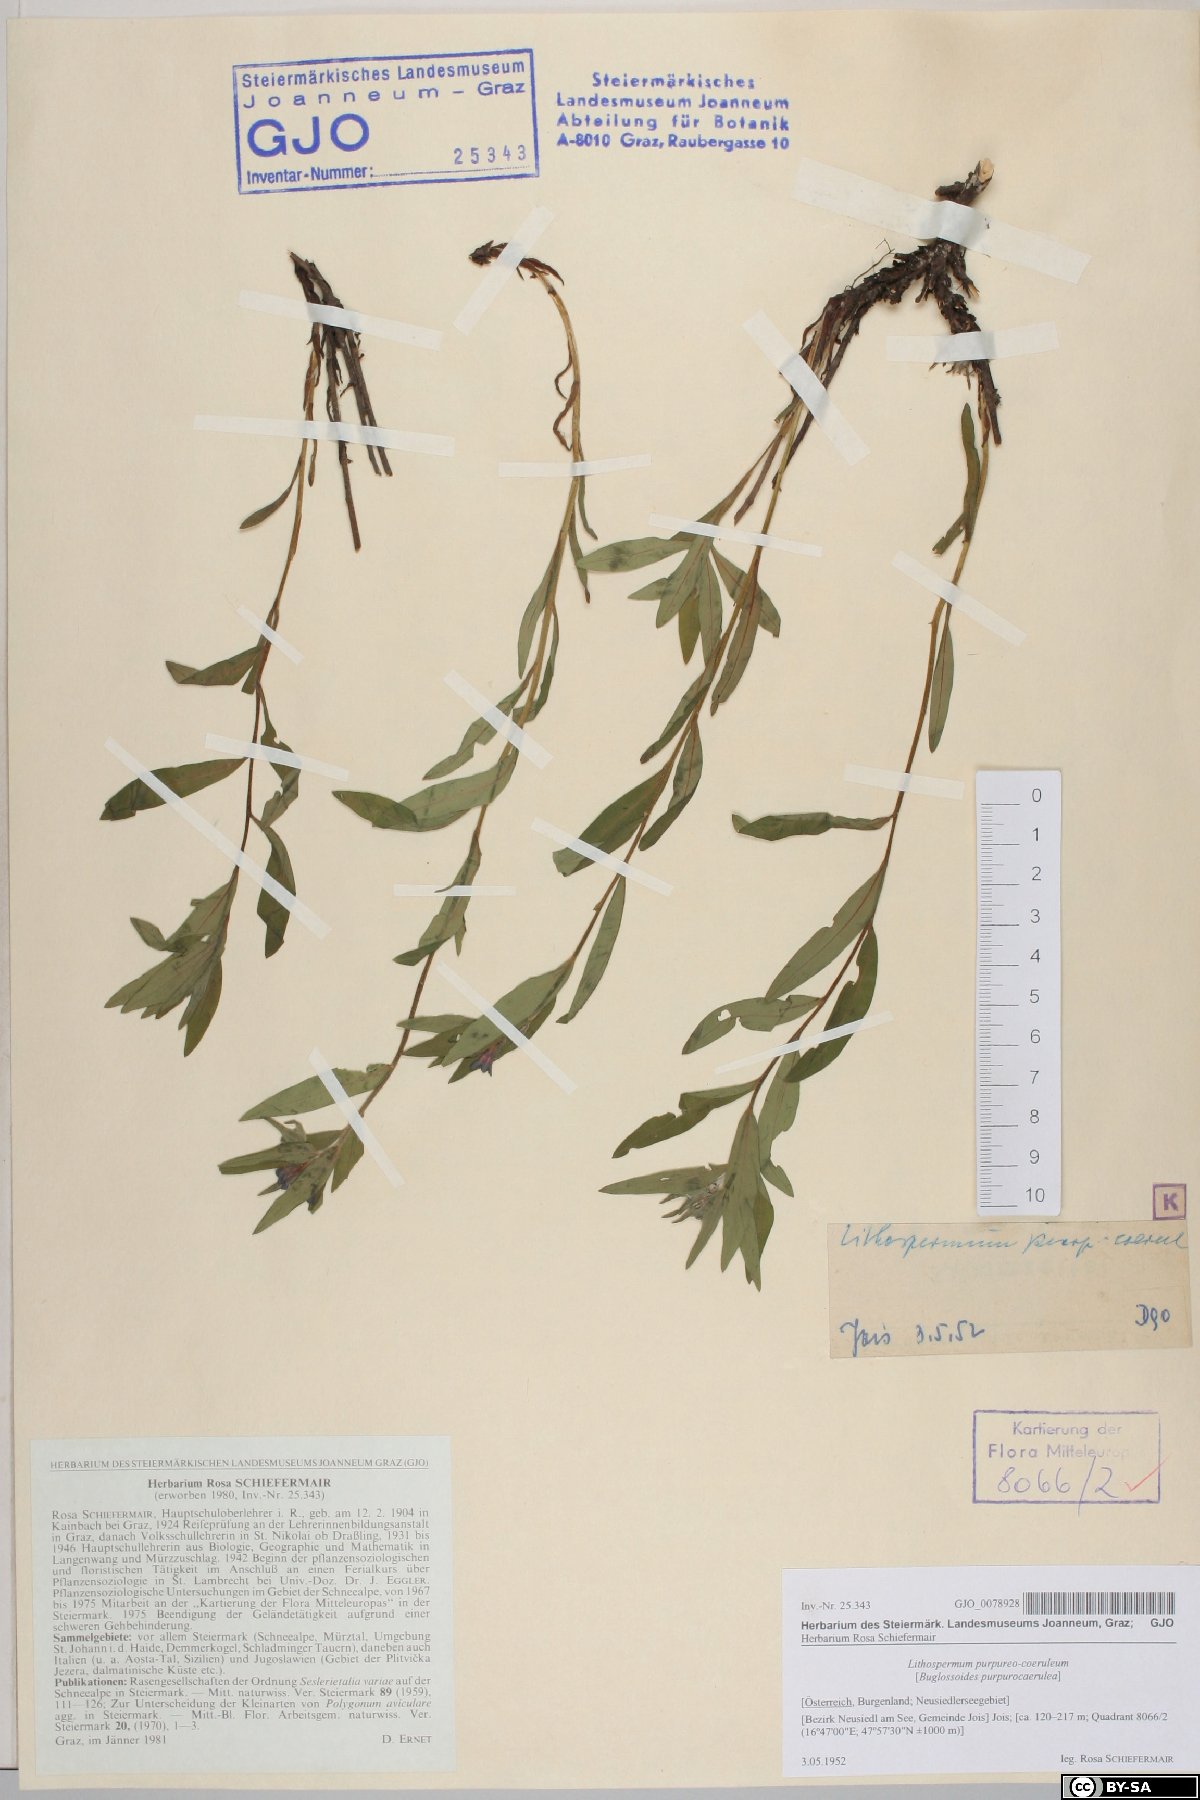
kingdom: Plantae
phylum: Tracheophyta
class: Magnoliopsida
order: Boraginales
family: Boraginaceae
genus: Aegonychon
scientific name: Aegonychon purpurocaeruleum
